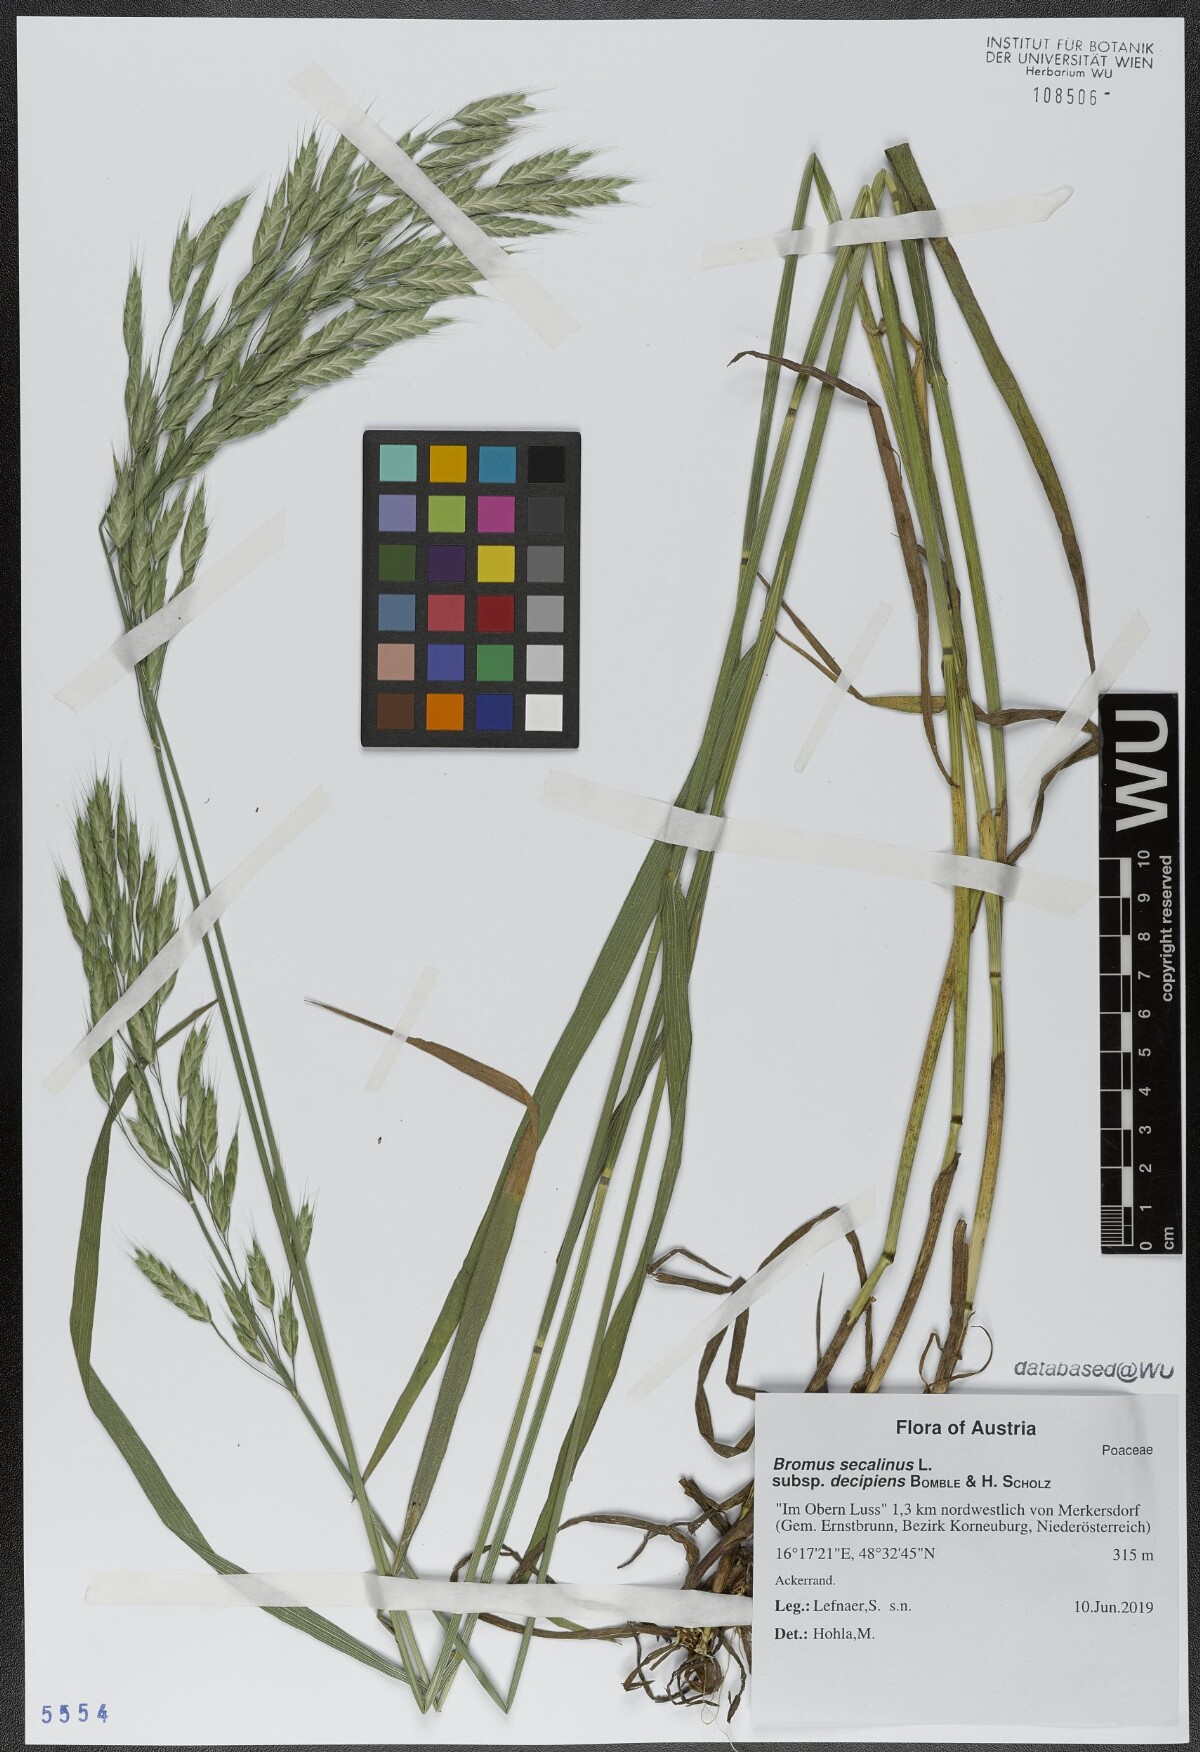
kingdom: Plantae
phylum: Tracheophyta
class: Liliopsida
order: Poales
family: Poaceae
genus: Bromus
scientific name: Bromus commutatus
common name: Meadow brome
